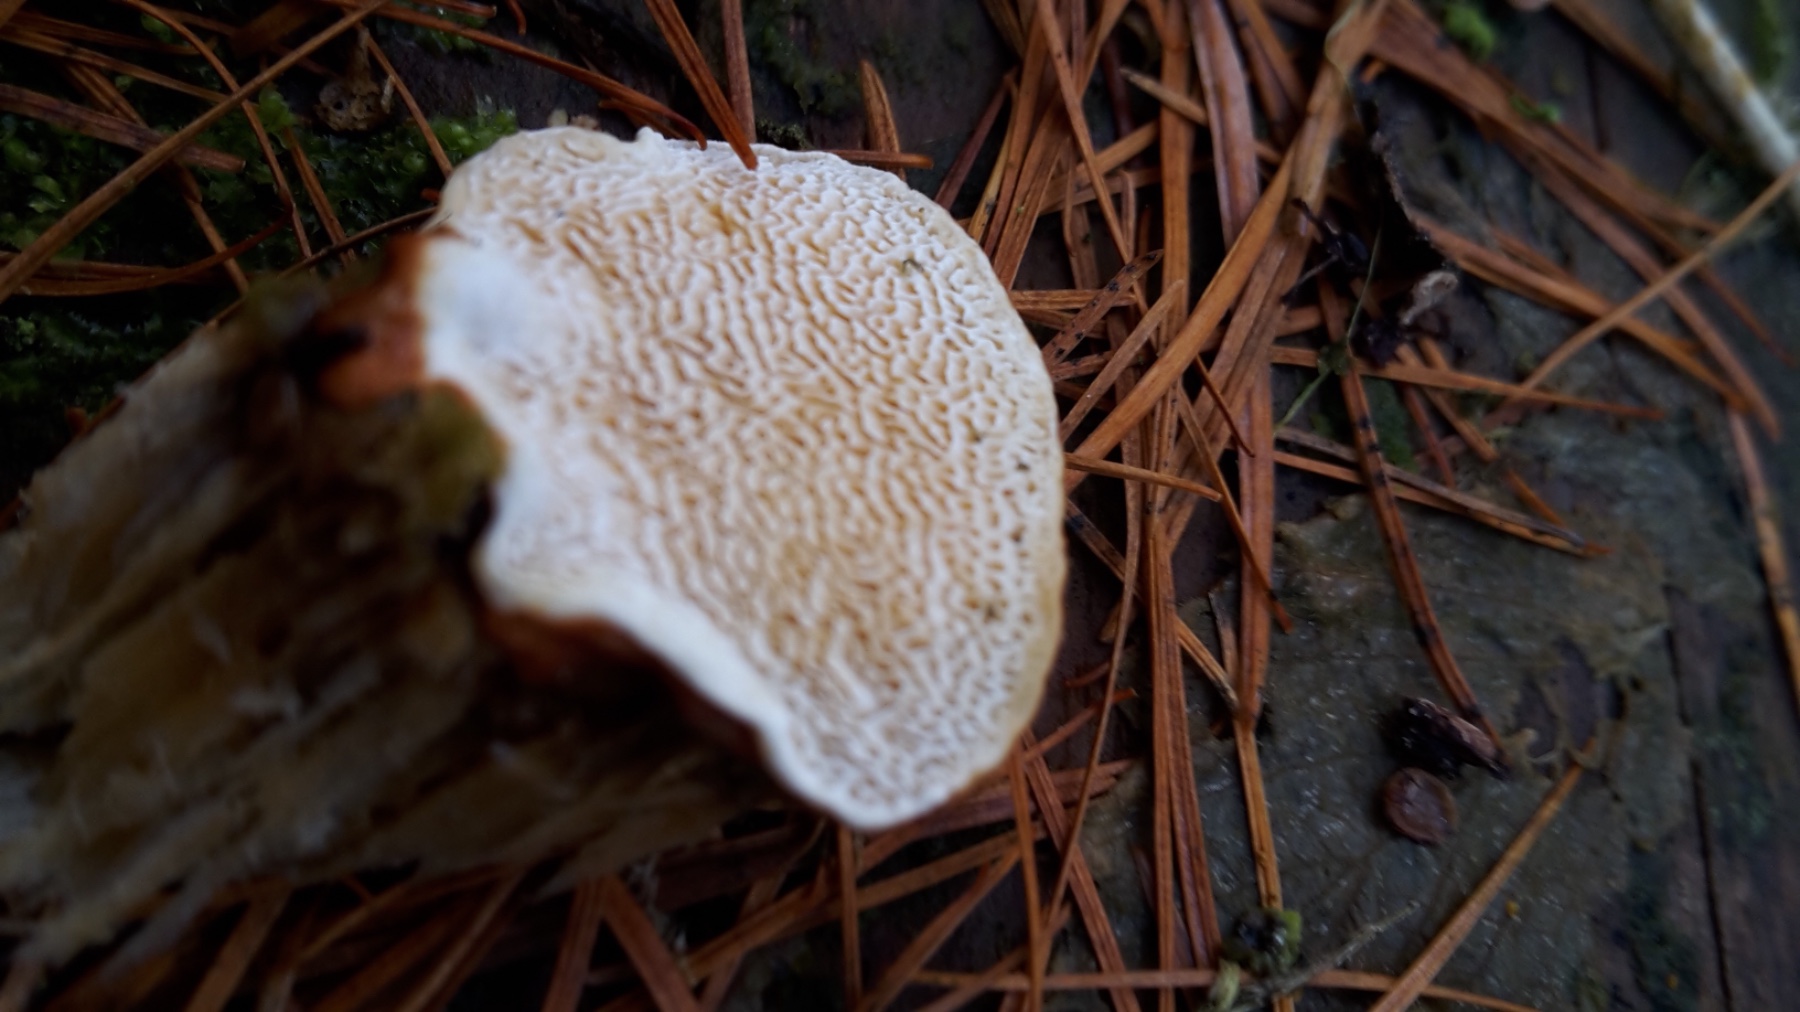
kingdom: Fungi
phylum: Basidiomycota
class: Agaricomycetes
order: Polyporales
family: Polyporaceae
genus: Ganoderma
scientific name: Ganoderma lucidum
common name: skinnende lakporesvamp
